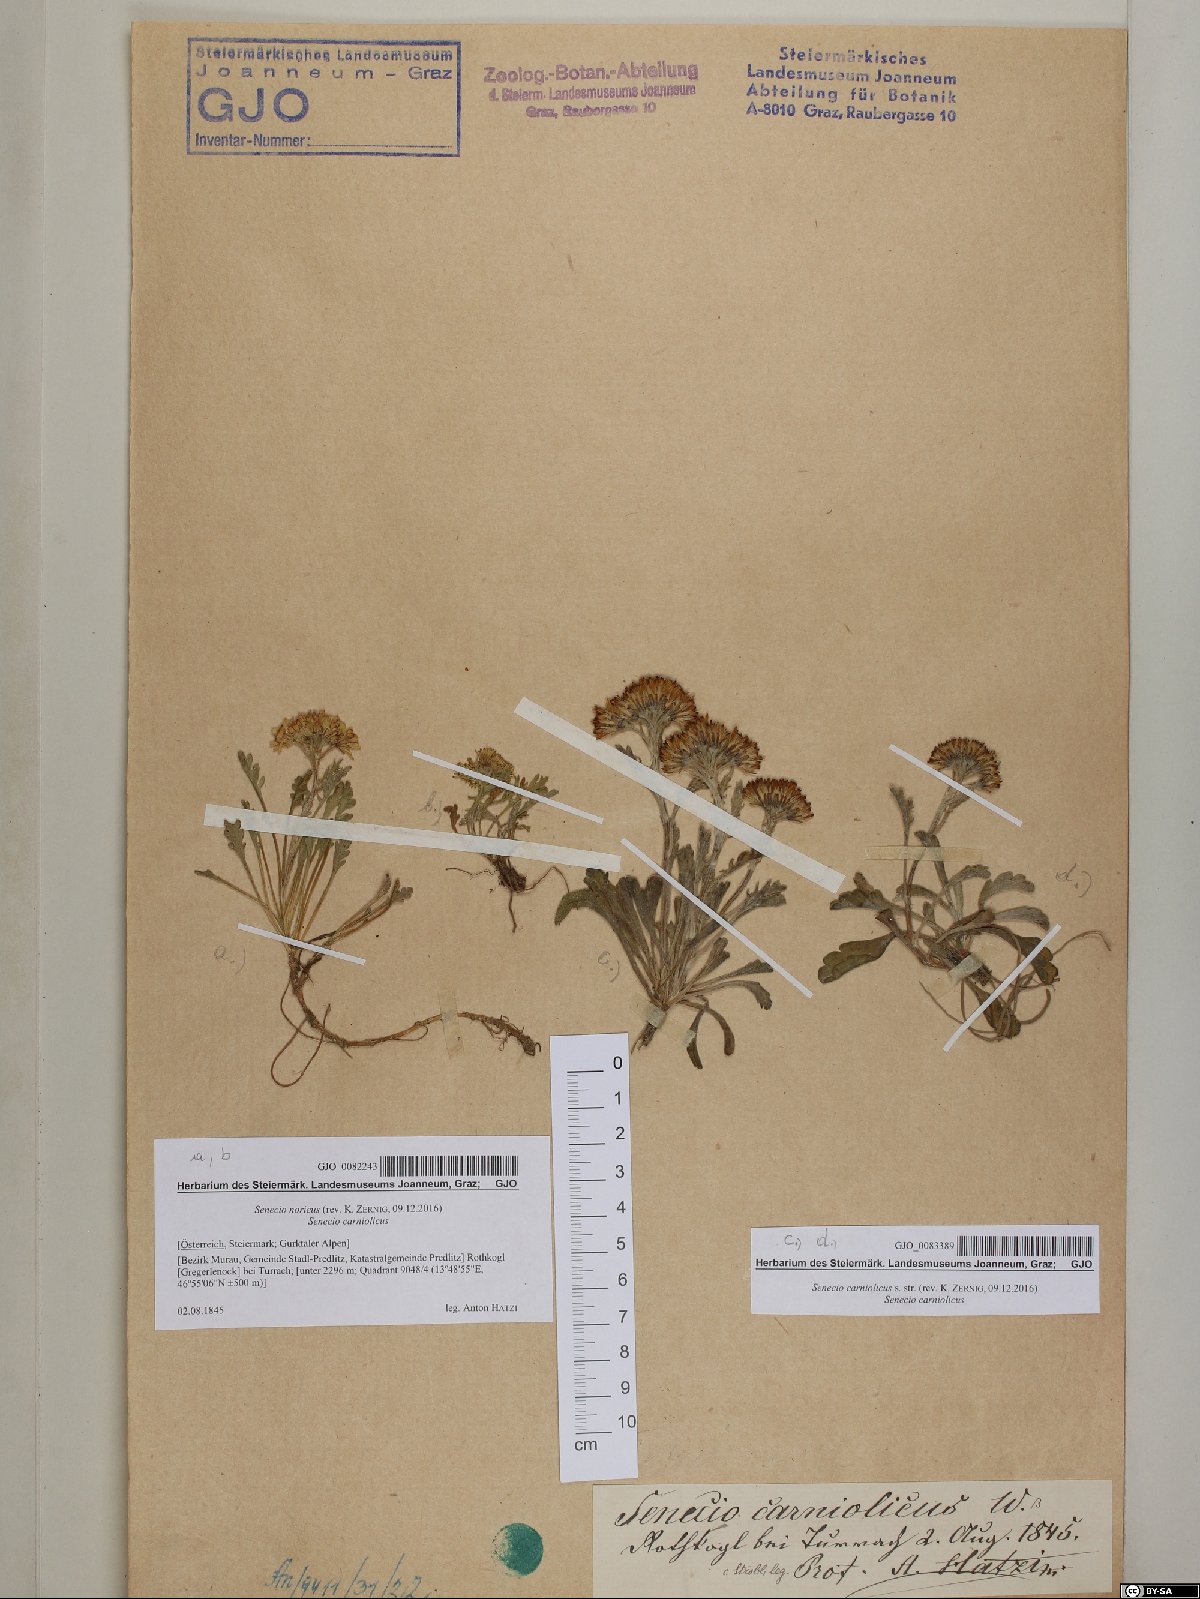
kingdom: Plantae
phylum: Tracheophyta
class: Magnoliopsida
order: Asterales
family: Asteraceae
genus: Jacobaea
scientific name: Jacobaea carniolica
